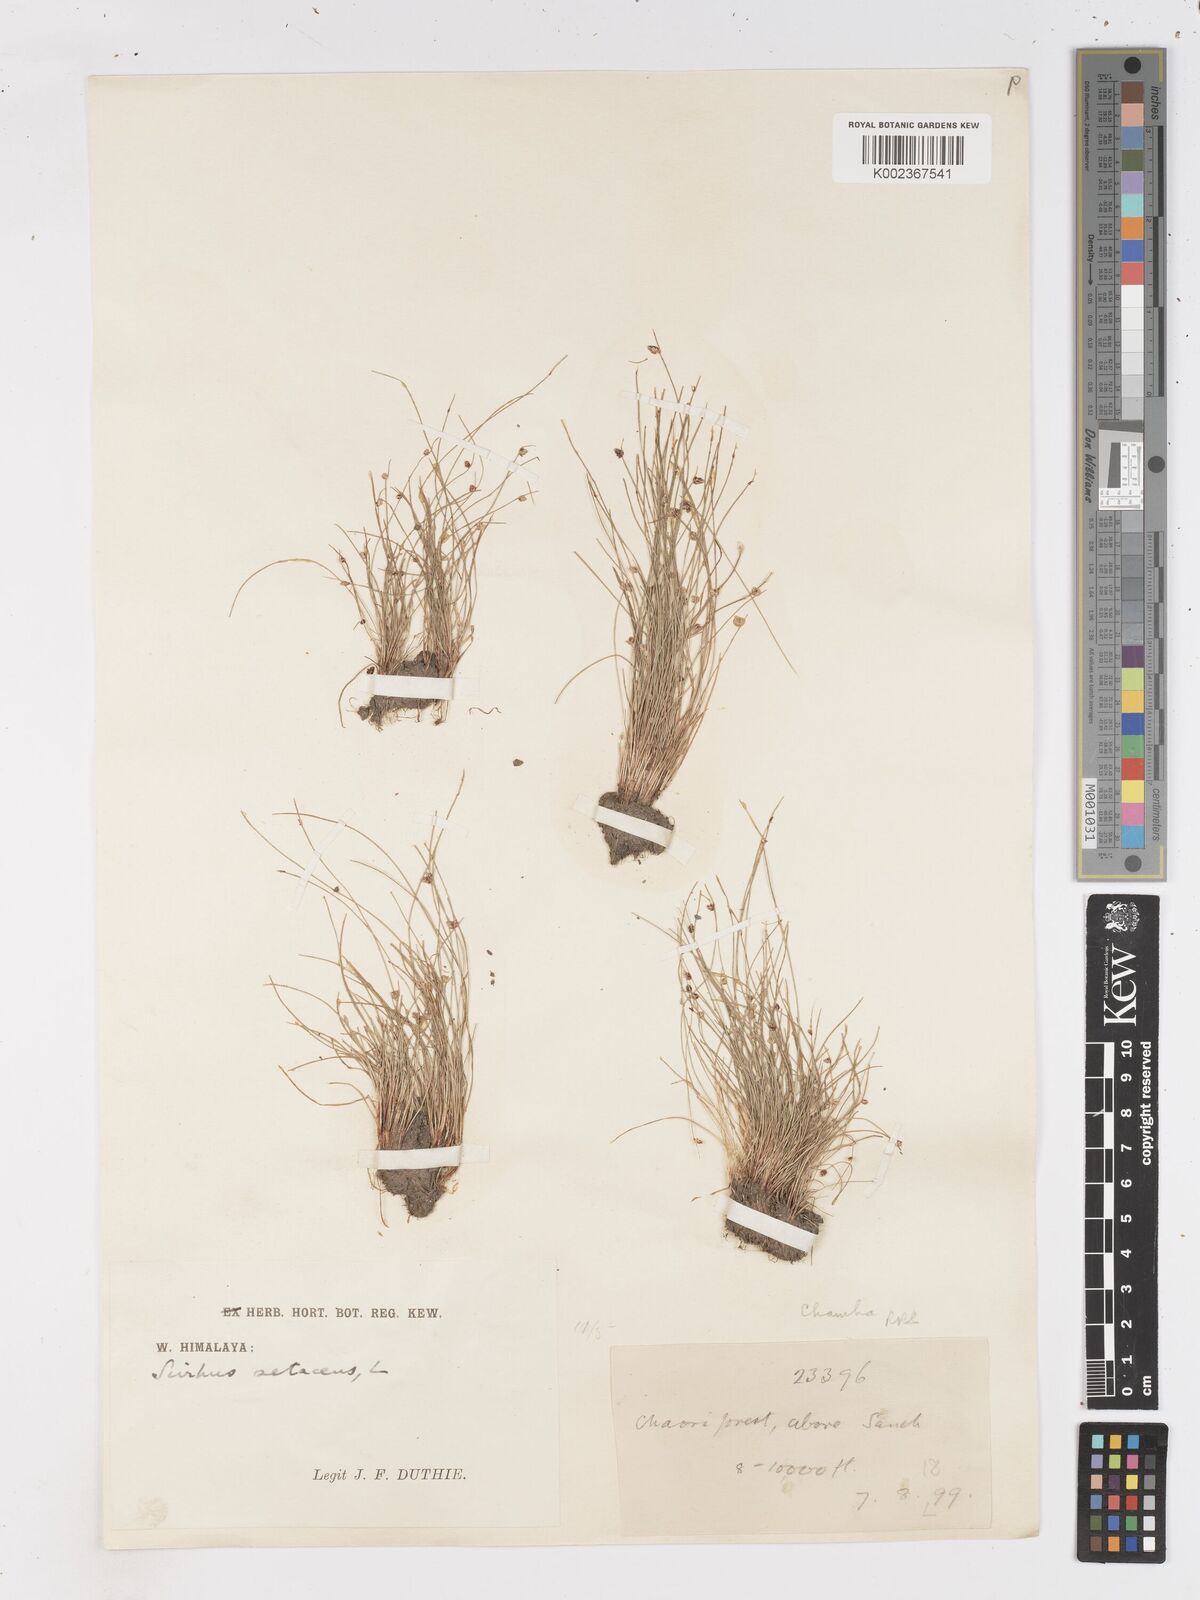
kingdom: Plantae
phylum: Tracheophyta
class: Liliopsida
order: Poales
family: Cyperaceae
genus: Isolepis
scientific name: Isolepis setacea
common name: Bristle club-rush
